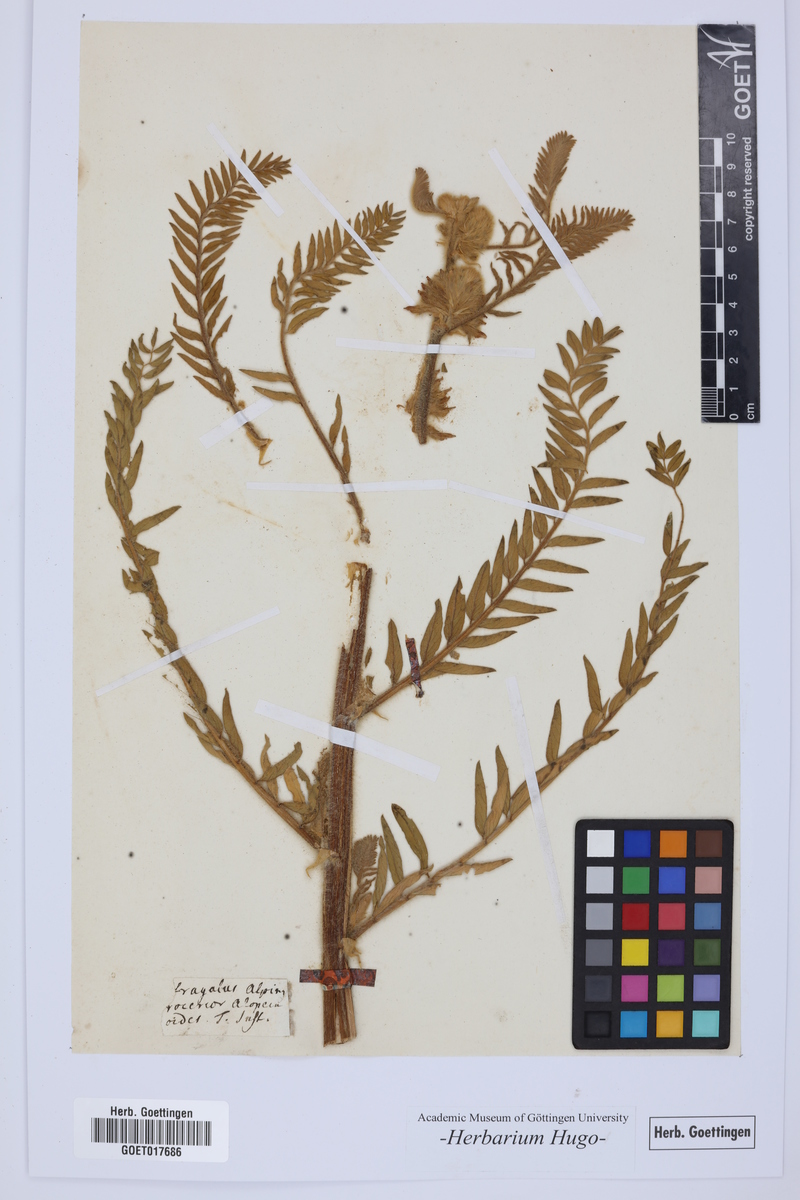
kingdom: Plantae
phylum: Tracheophyta
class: Magnoliopsida
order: Fabales
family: Fabaceae
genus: Astragalus
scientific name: Astragalus alopecuroides
